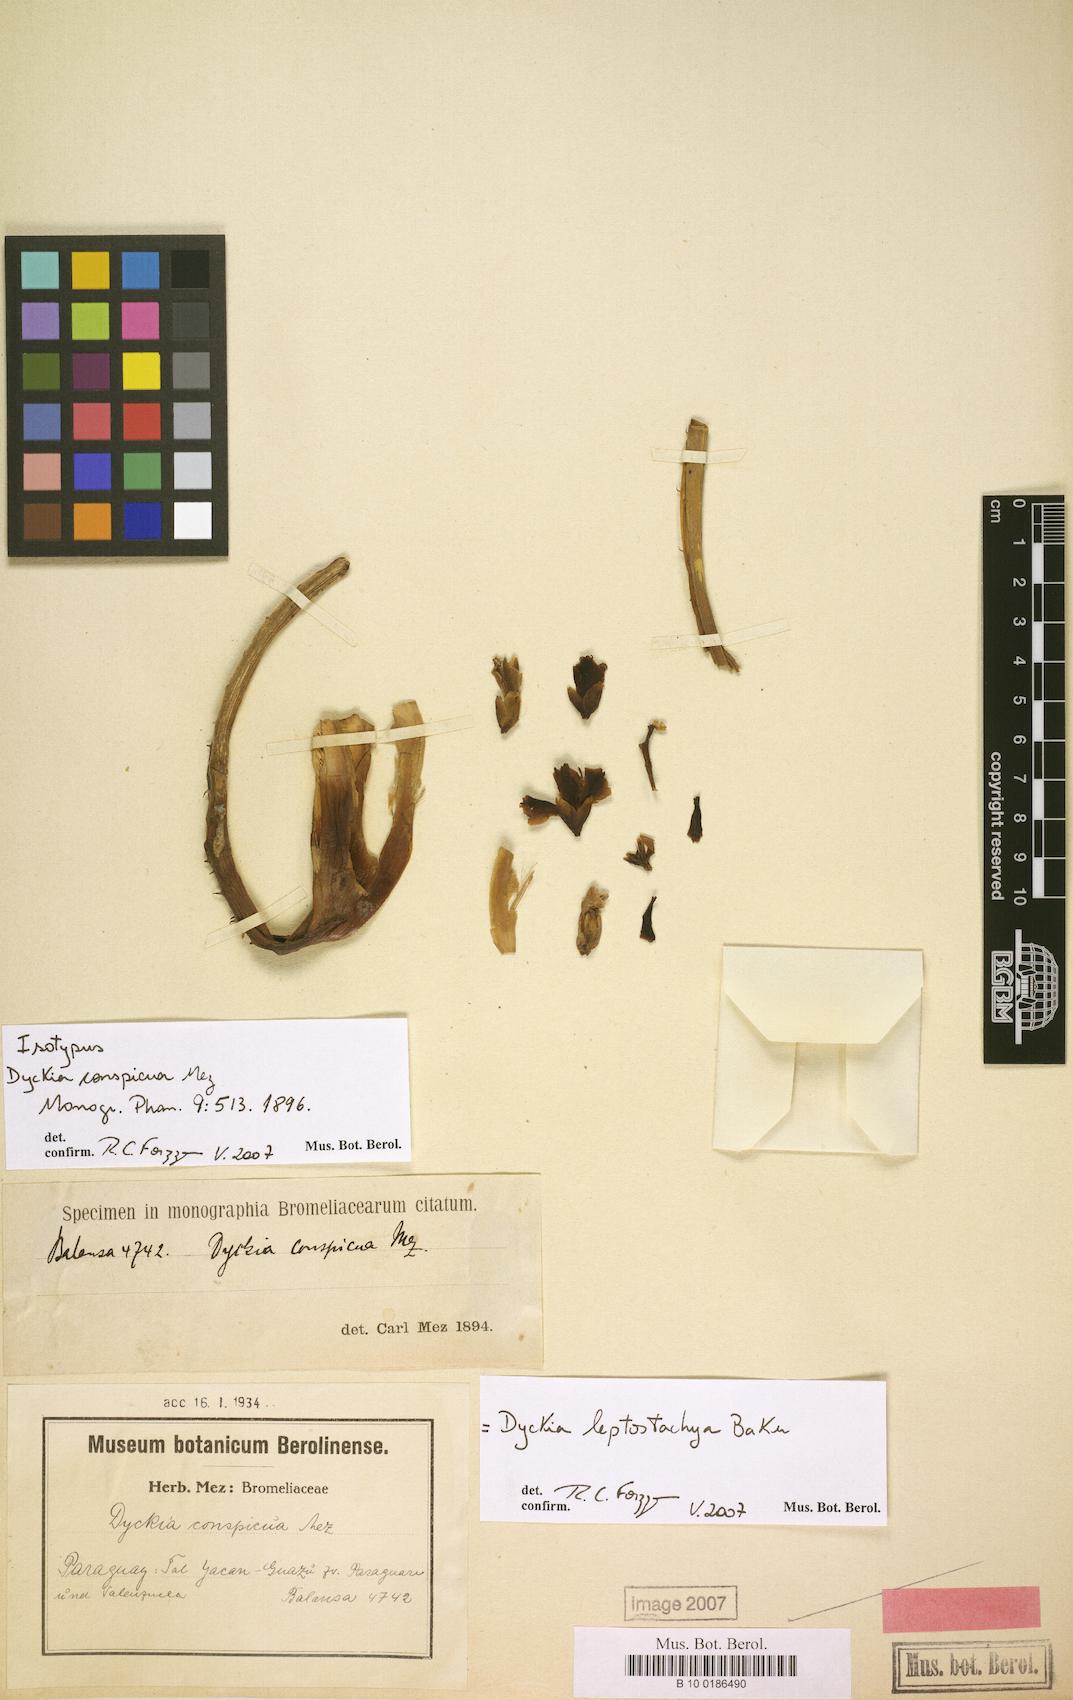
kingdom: Plantae
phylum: Tracheophyta
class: Liliopsida
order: Poales
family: Bromeliaceae
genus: Dyckia
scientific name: Dyckia leptostachya
